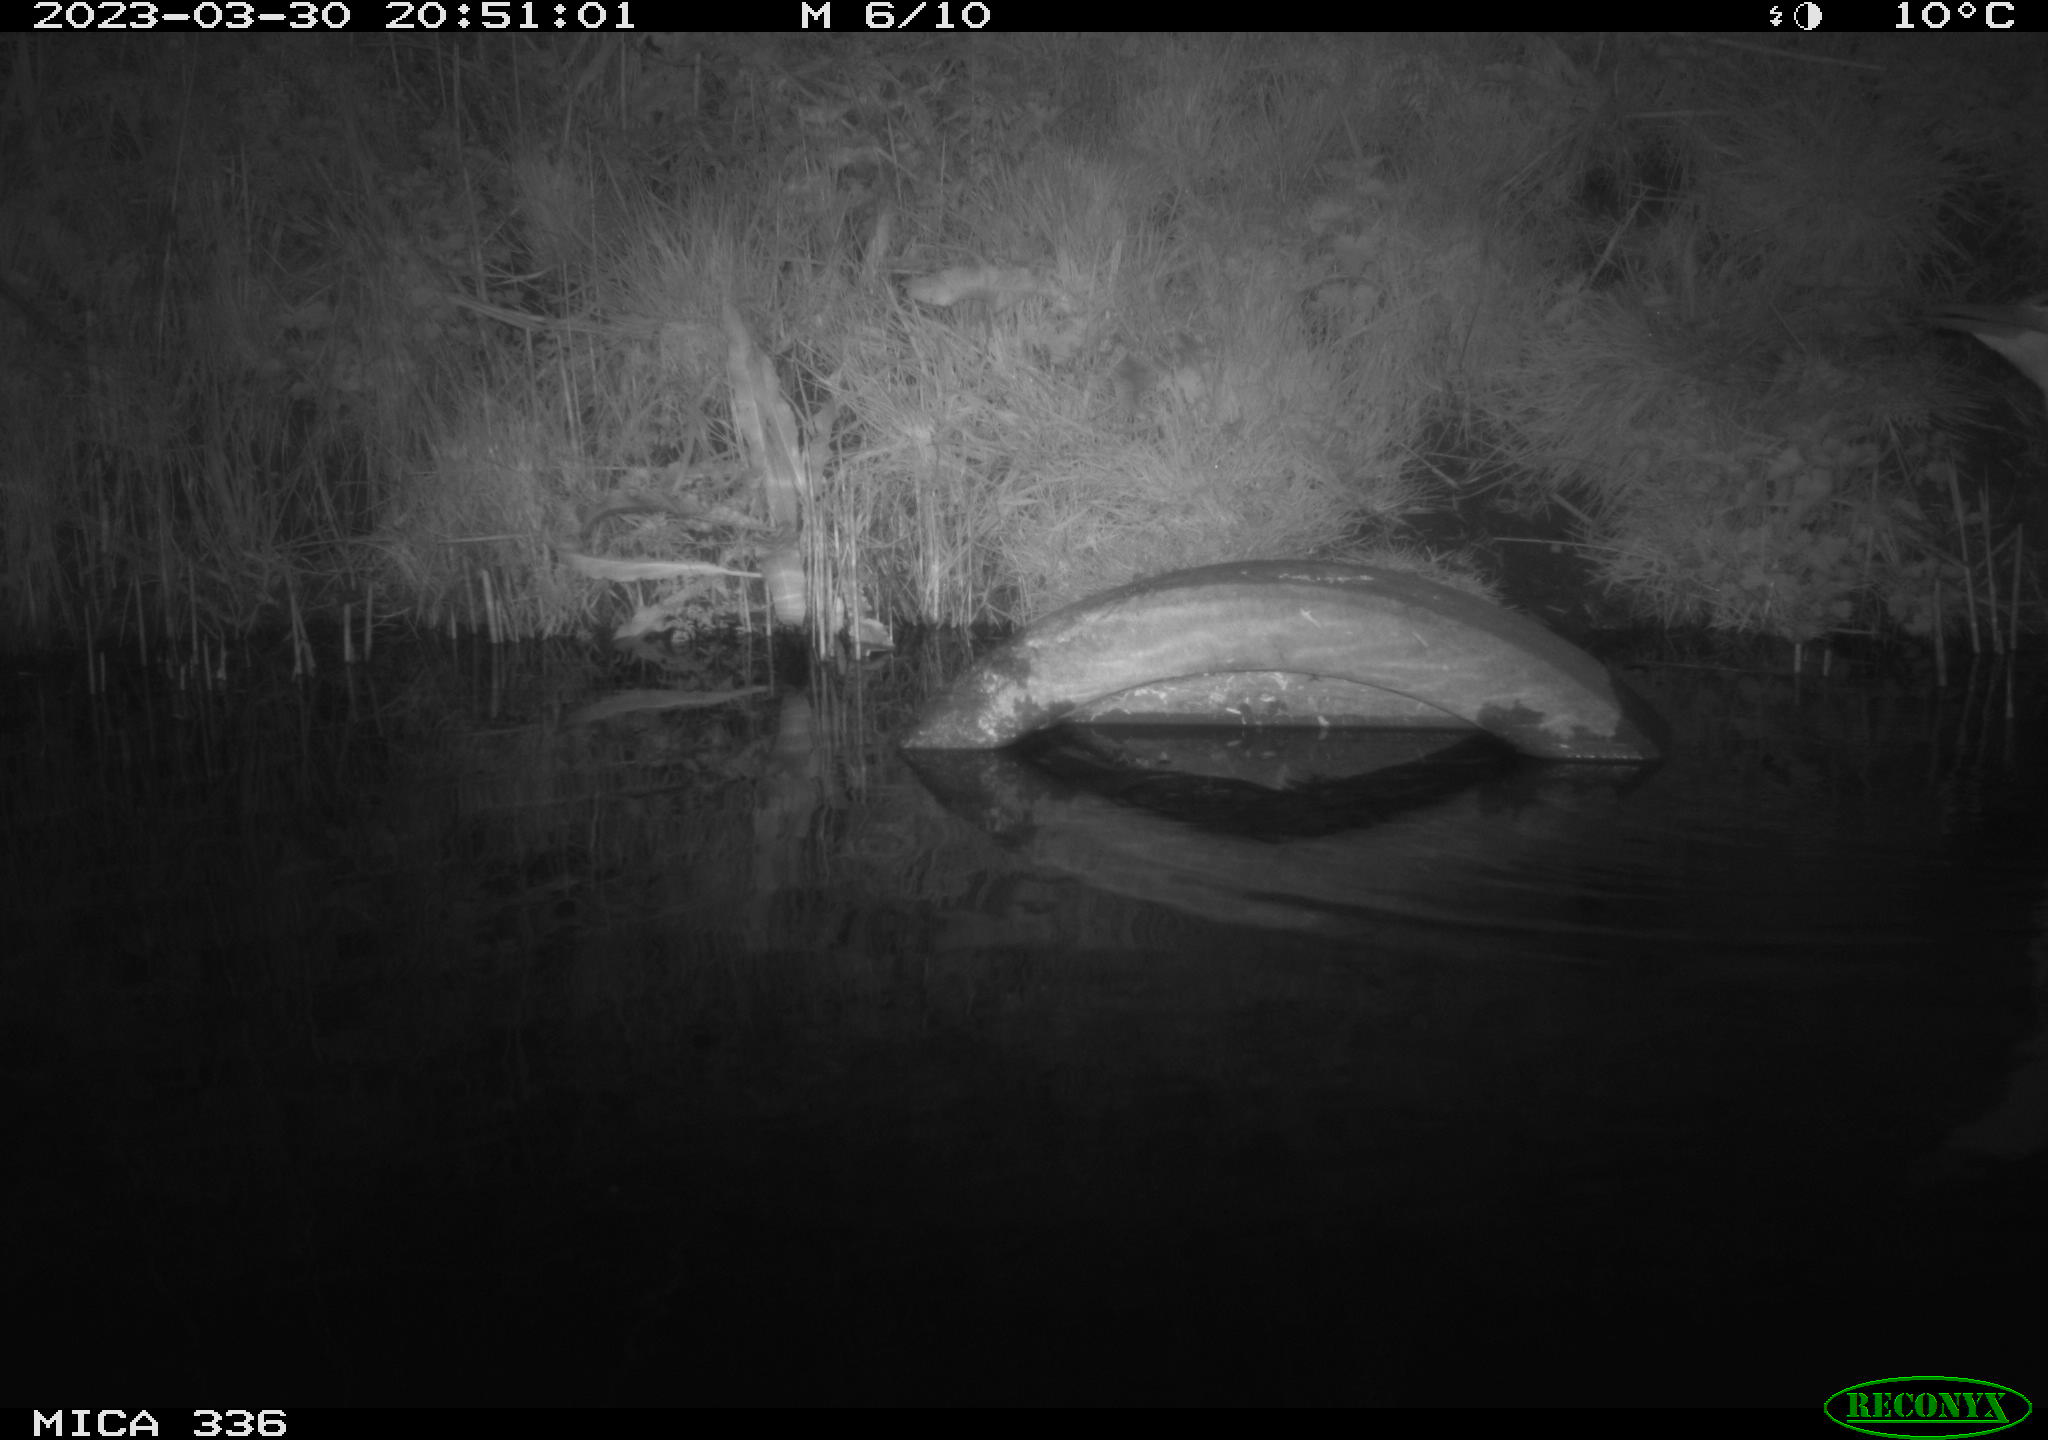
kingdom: Animalia
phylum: Chordata
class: Aves
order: Pelecaniformes
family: Ardeidae
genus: Ardea
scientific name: Ardea
